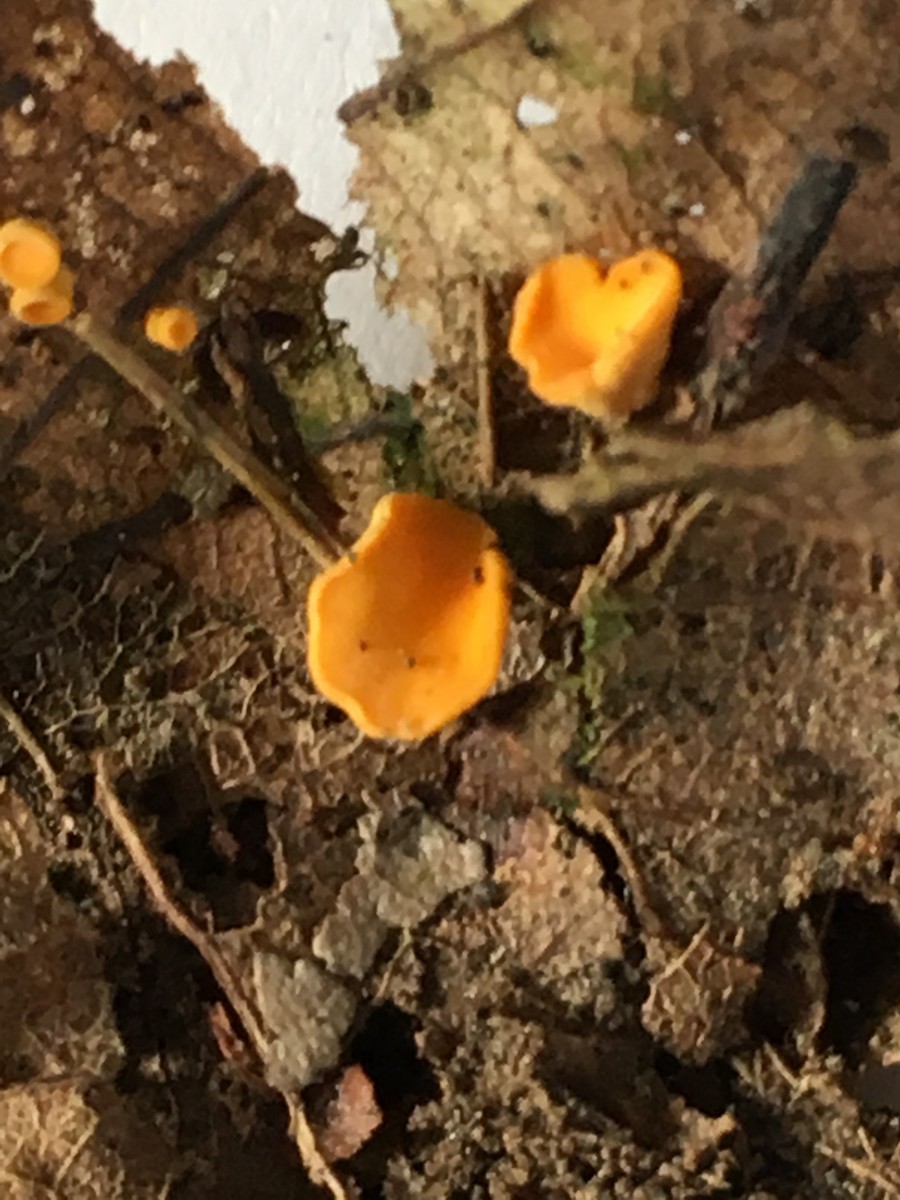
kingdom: Fungi
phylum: Ascomycota
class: Leotiomycetes
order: Helotiales
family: Helotiaceae
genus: Phaeohelotium
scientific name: Phaeohelotium
